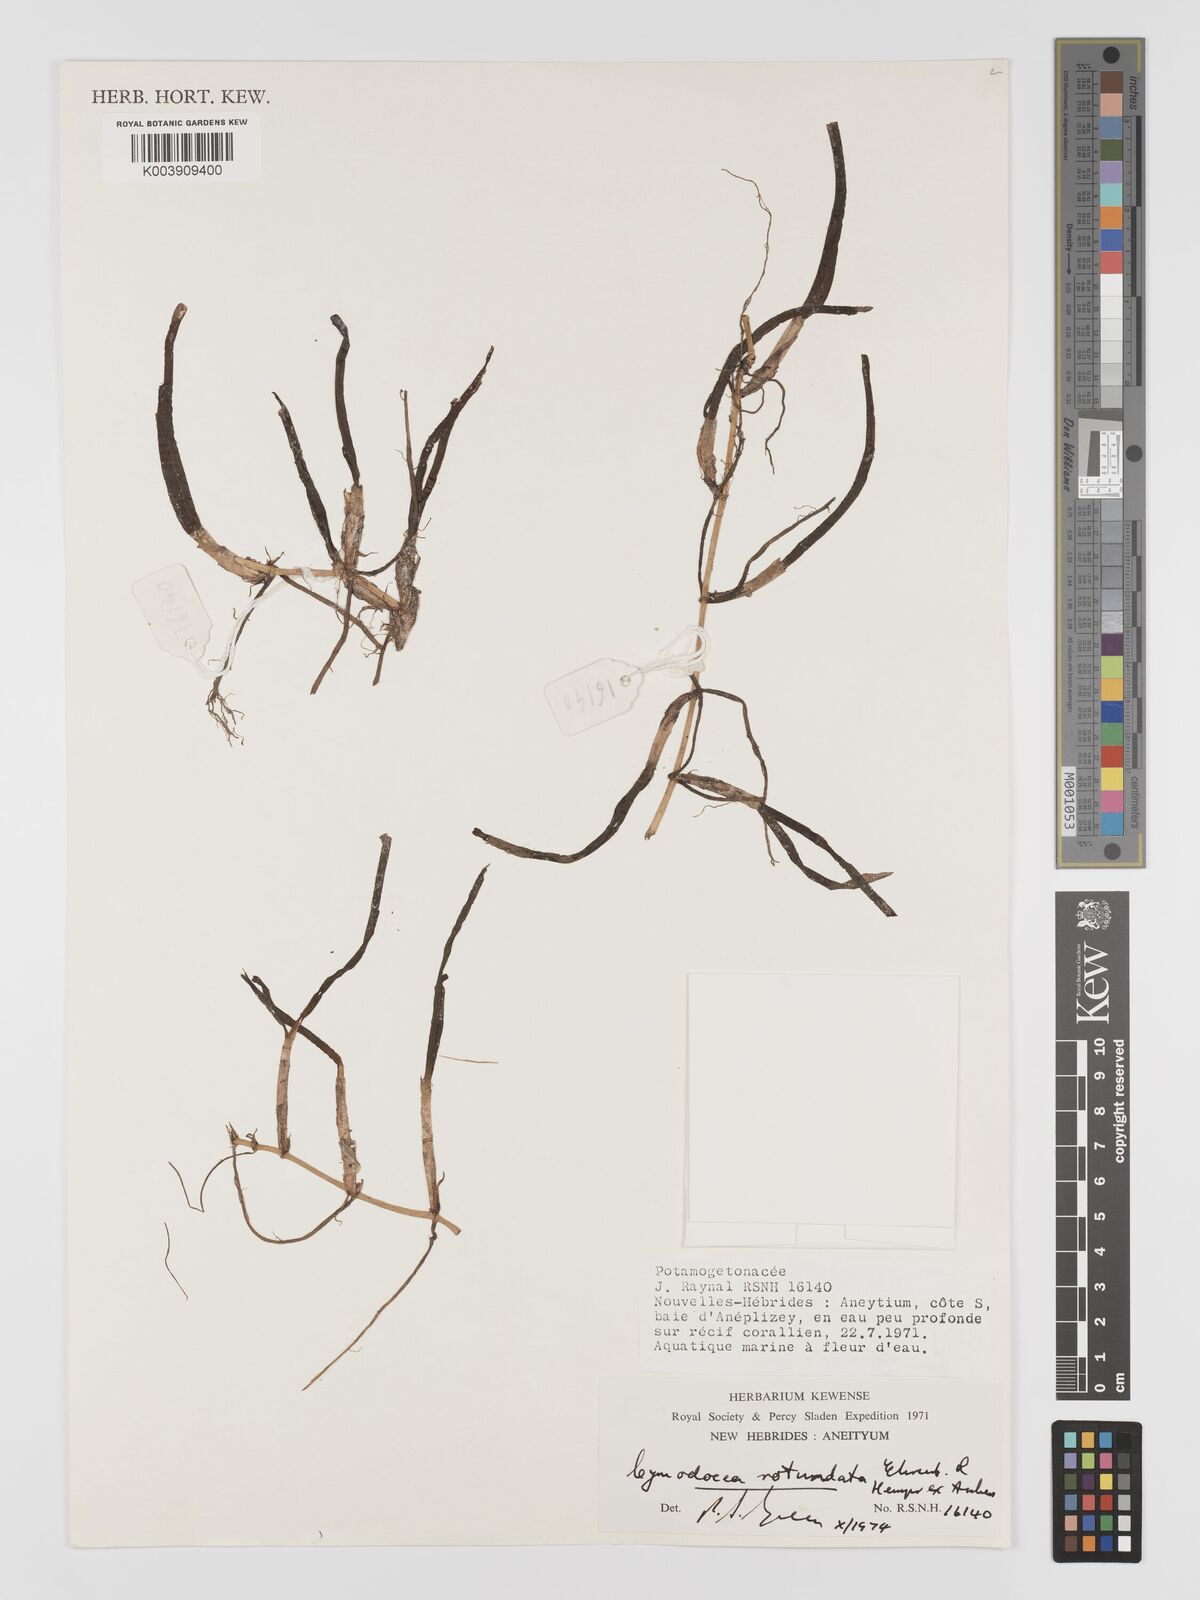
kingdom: Plantae
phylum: Tracheophyta
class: Liliopsida
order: Alismatales
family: Cymodoceaceae
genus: Cymodocea
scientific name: Cymodocea rotundata
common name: Species code: cr
